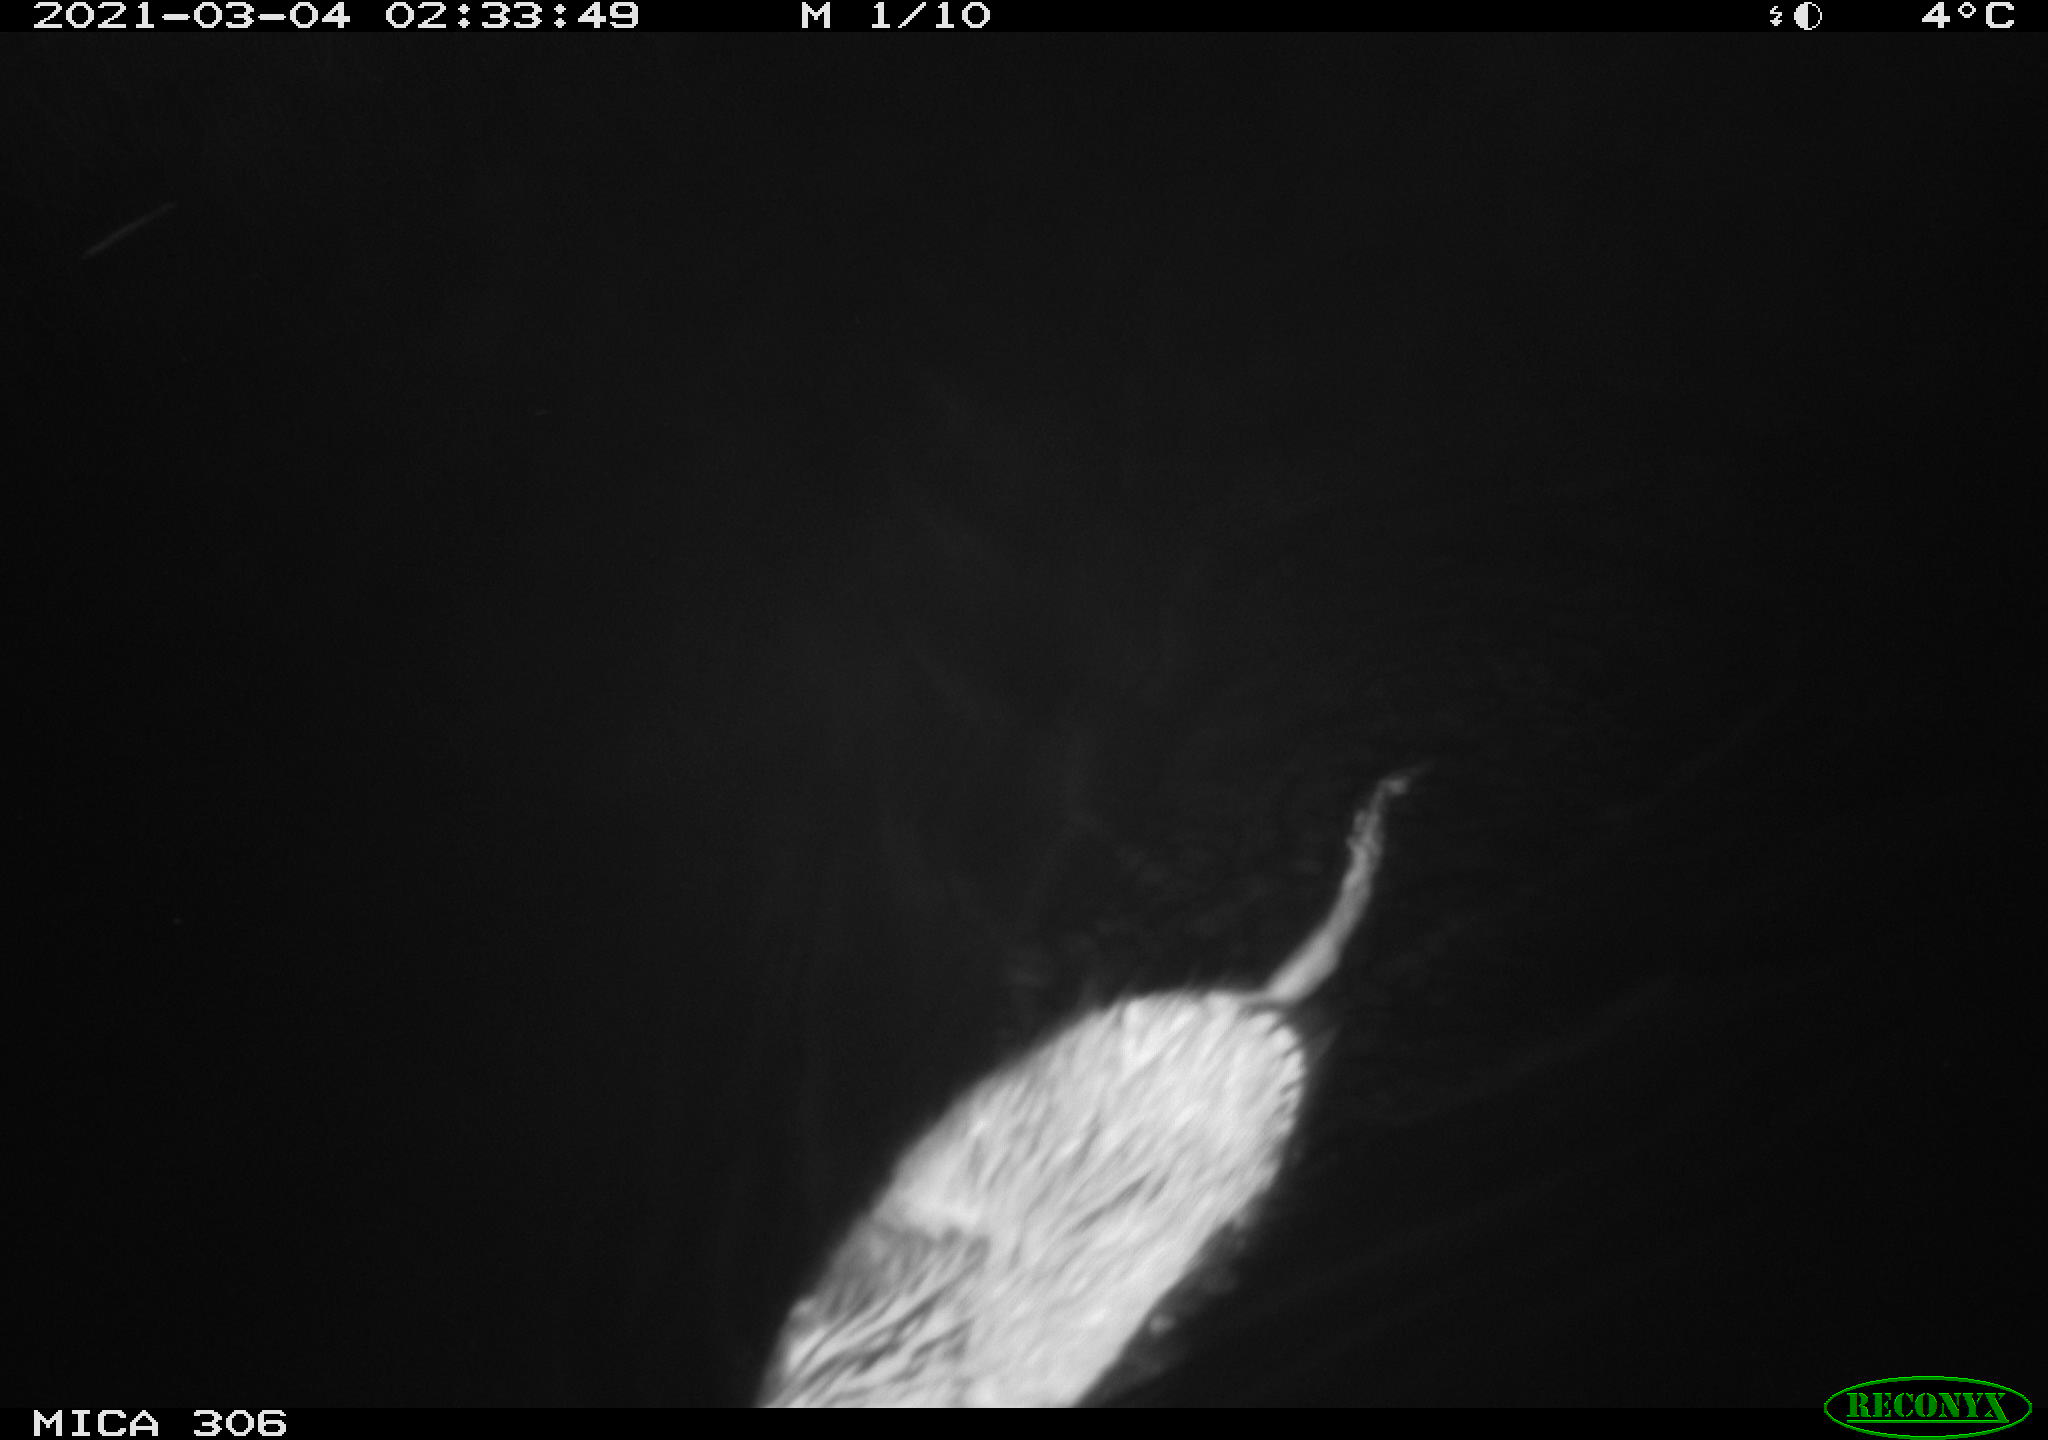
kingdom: Animalia
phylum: Chordata
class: Mammalia
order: Rodentia
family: Cricetidae
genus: Ondatra
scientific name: Ondatra zibethicus
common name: Muskrat
